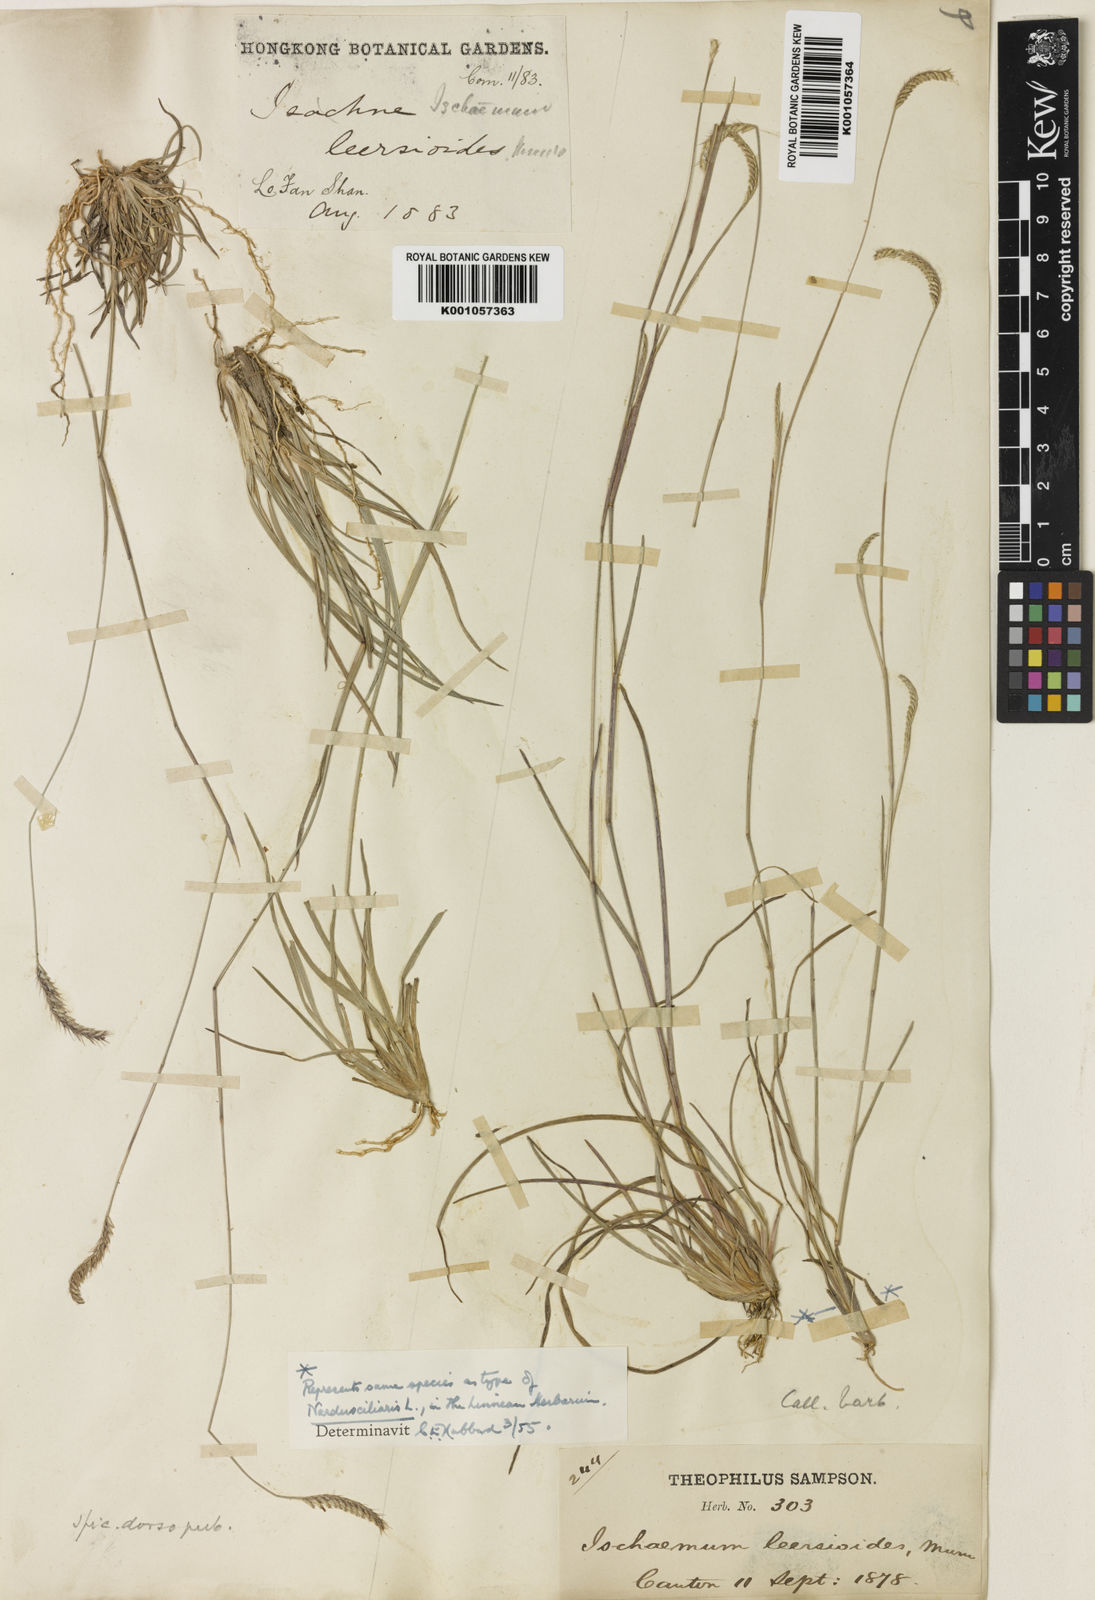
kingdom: Plantae
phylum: Tracheophyta
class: Liliopsida
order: Poales
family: Poaceae
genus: Eremochloa
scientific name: Eremochloa ciliaris
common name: Fringed centipede grass
